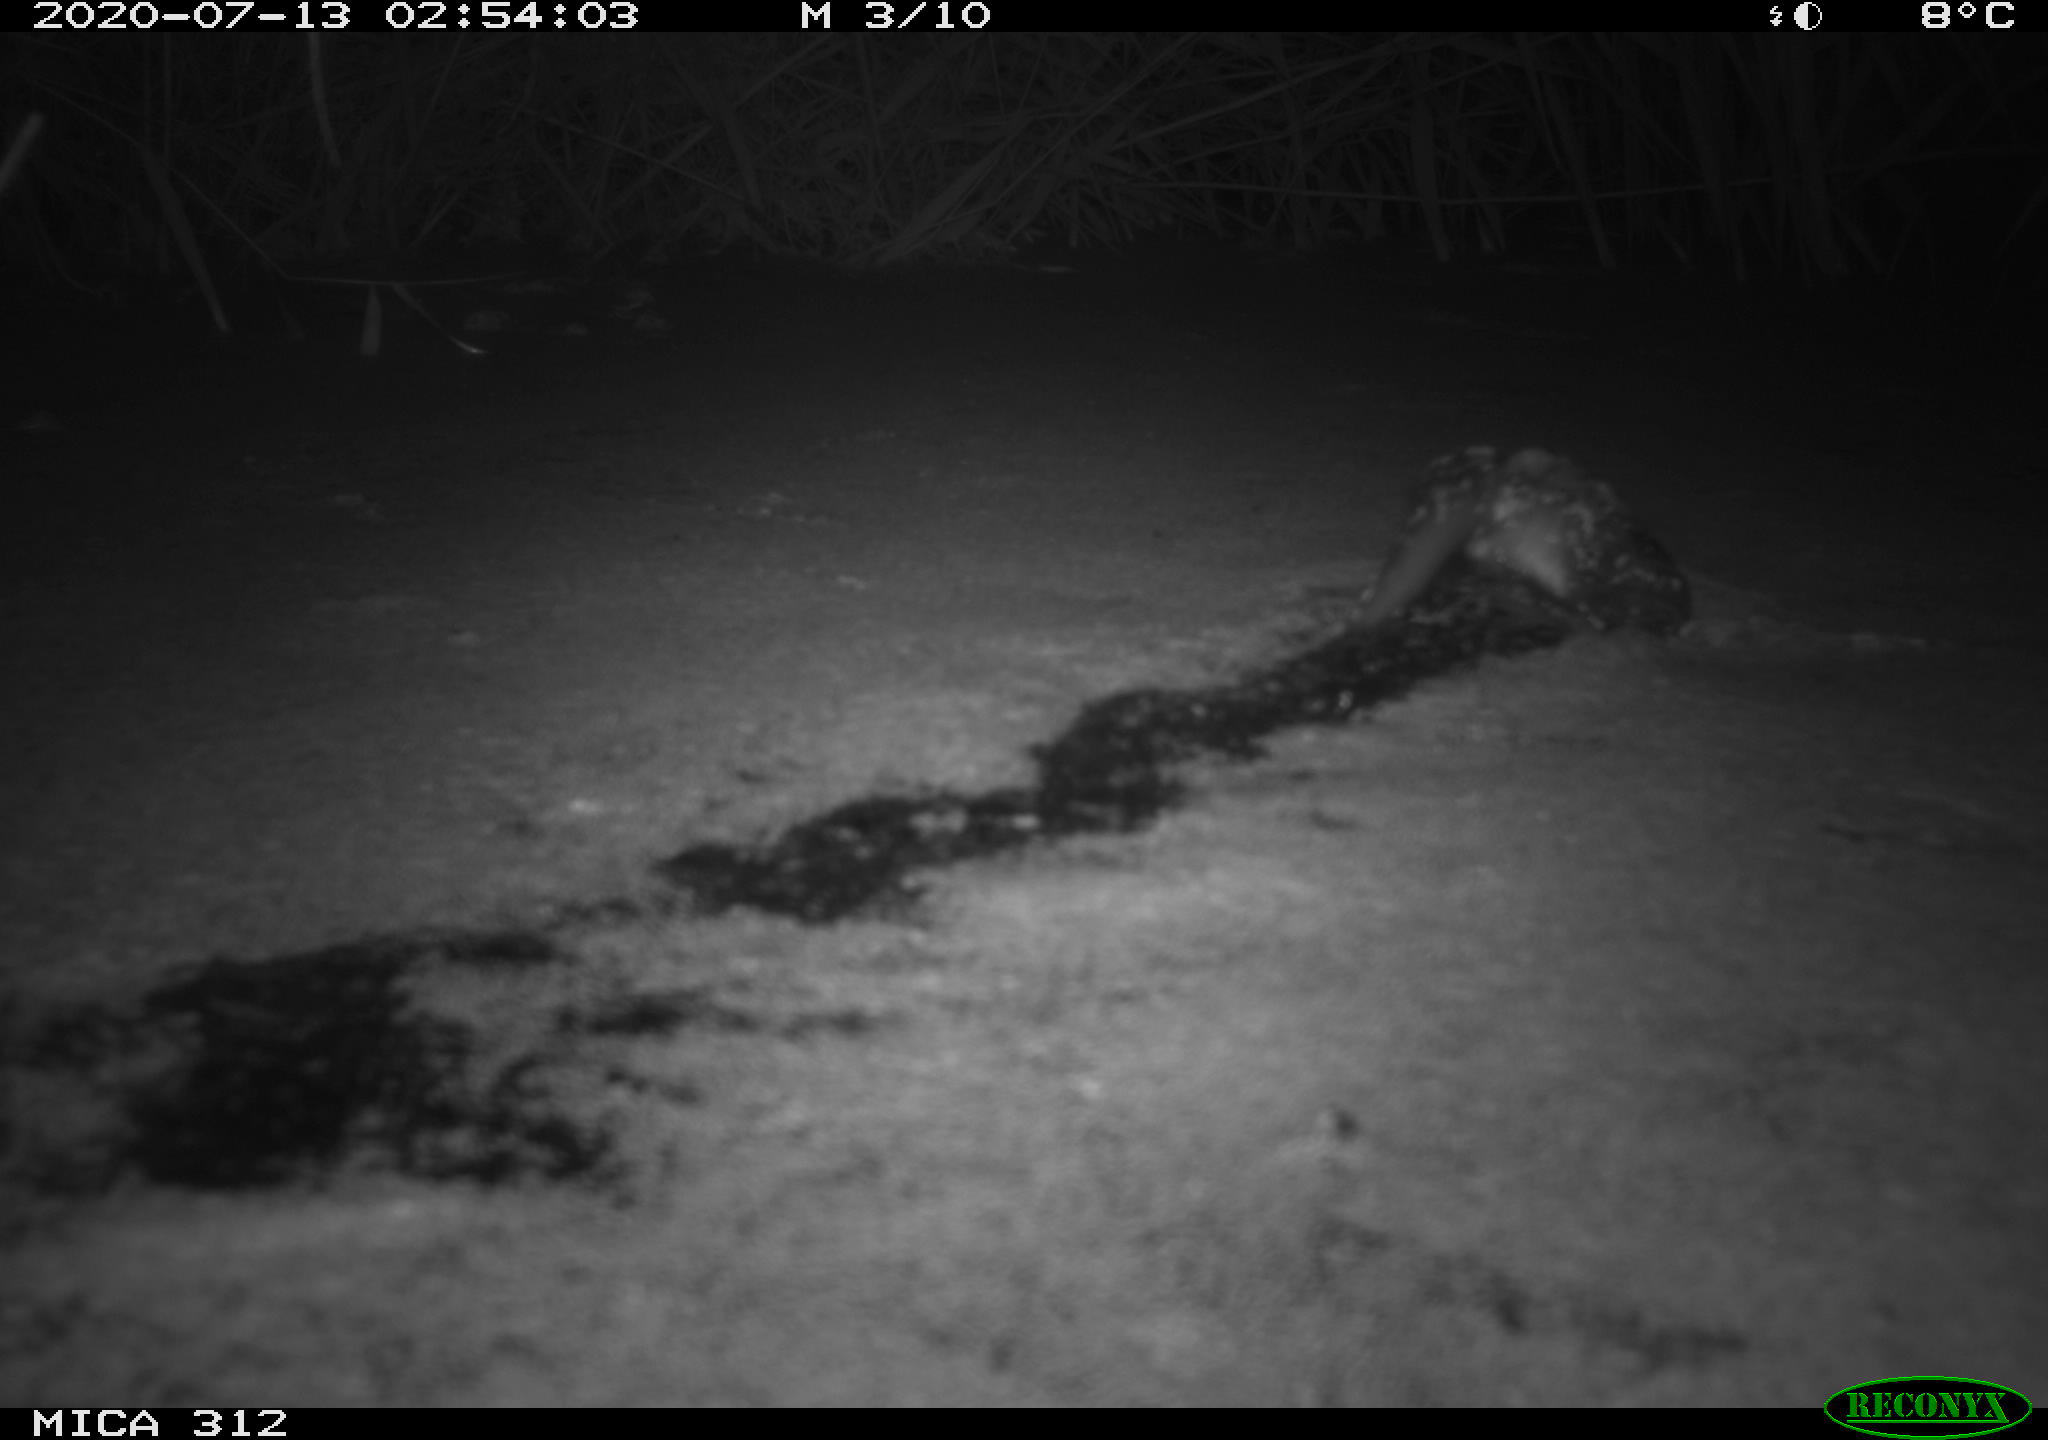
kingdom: Animalia
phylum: Chordata
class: Mammalia
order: Rodentia
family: Cricetidae
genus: Ondatra
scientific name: Ondatra zibethicus
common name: Muskrat
